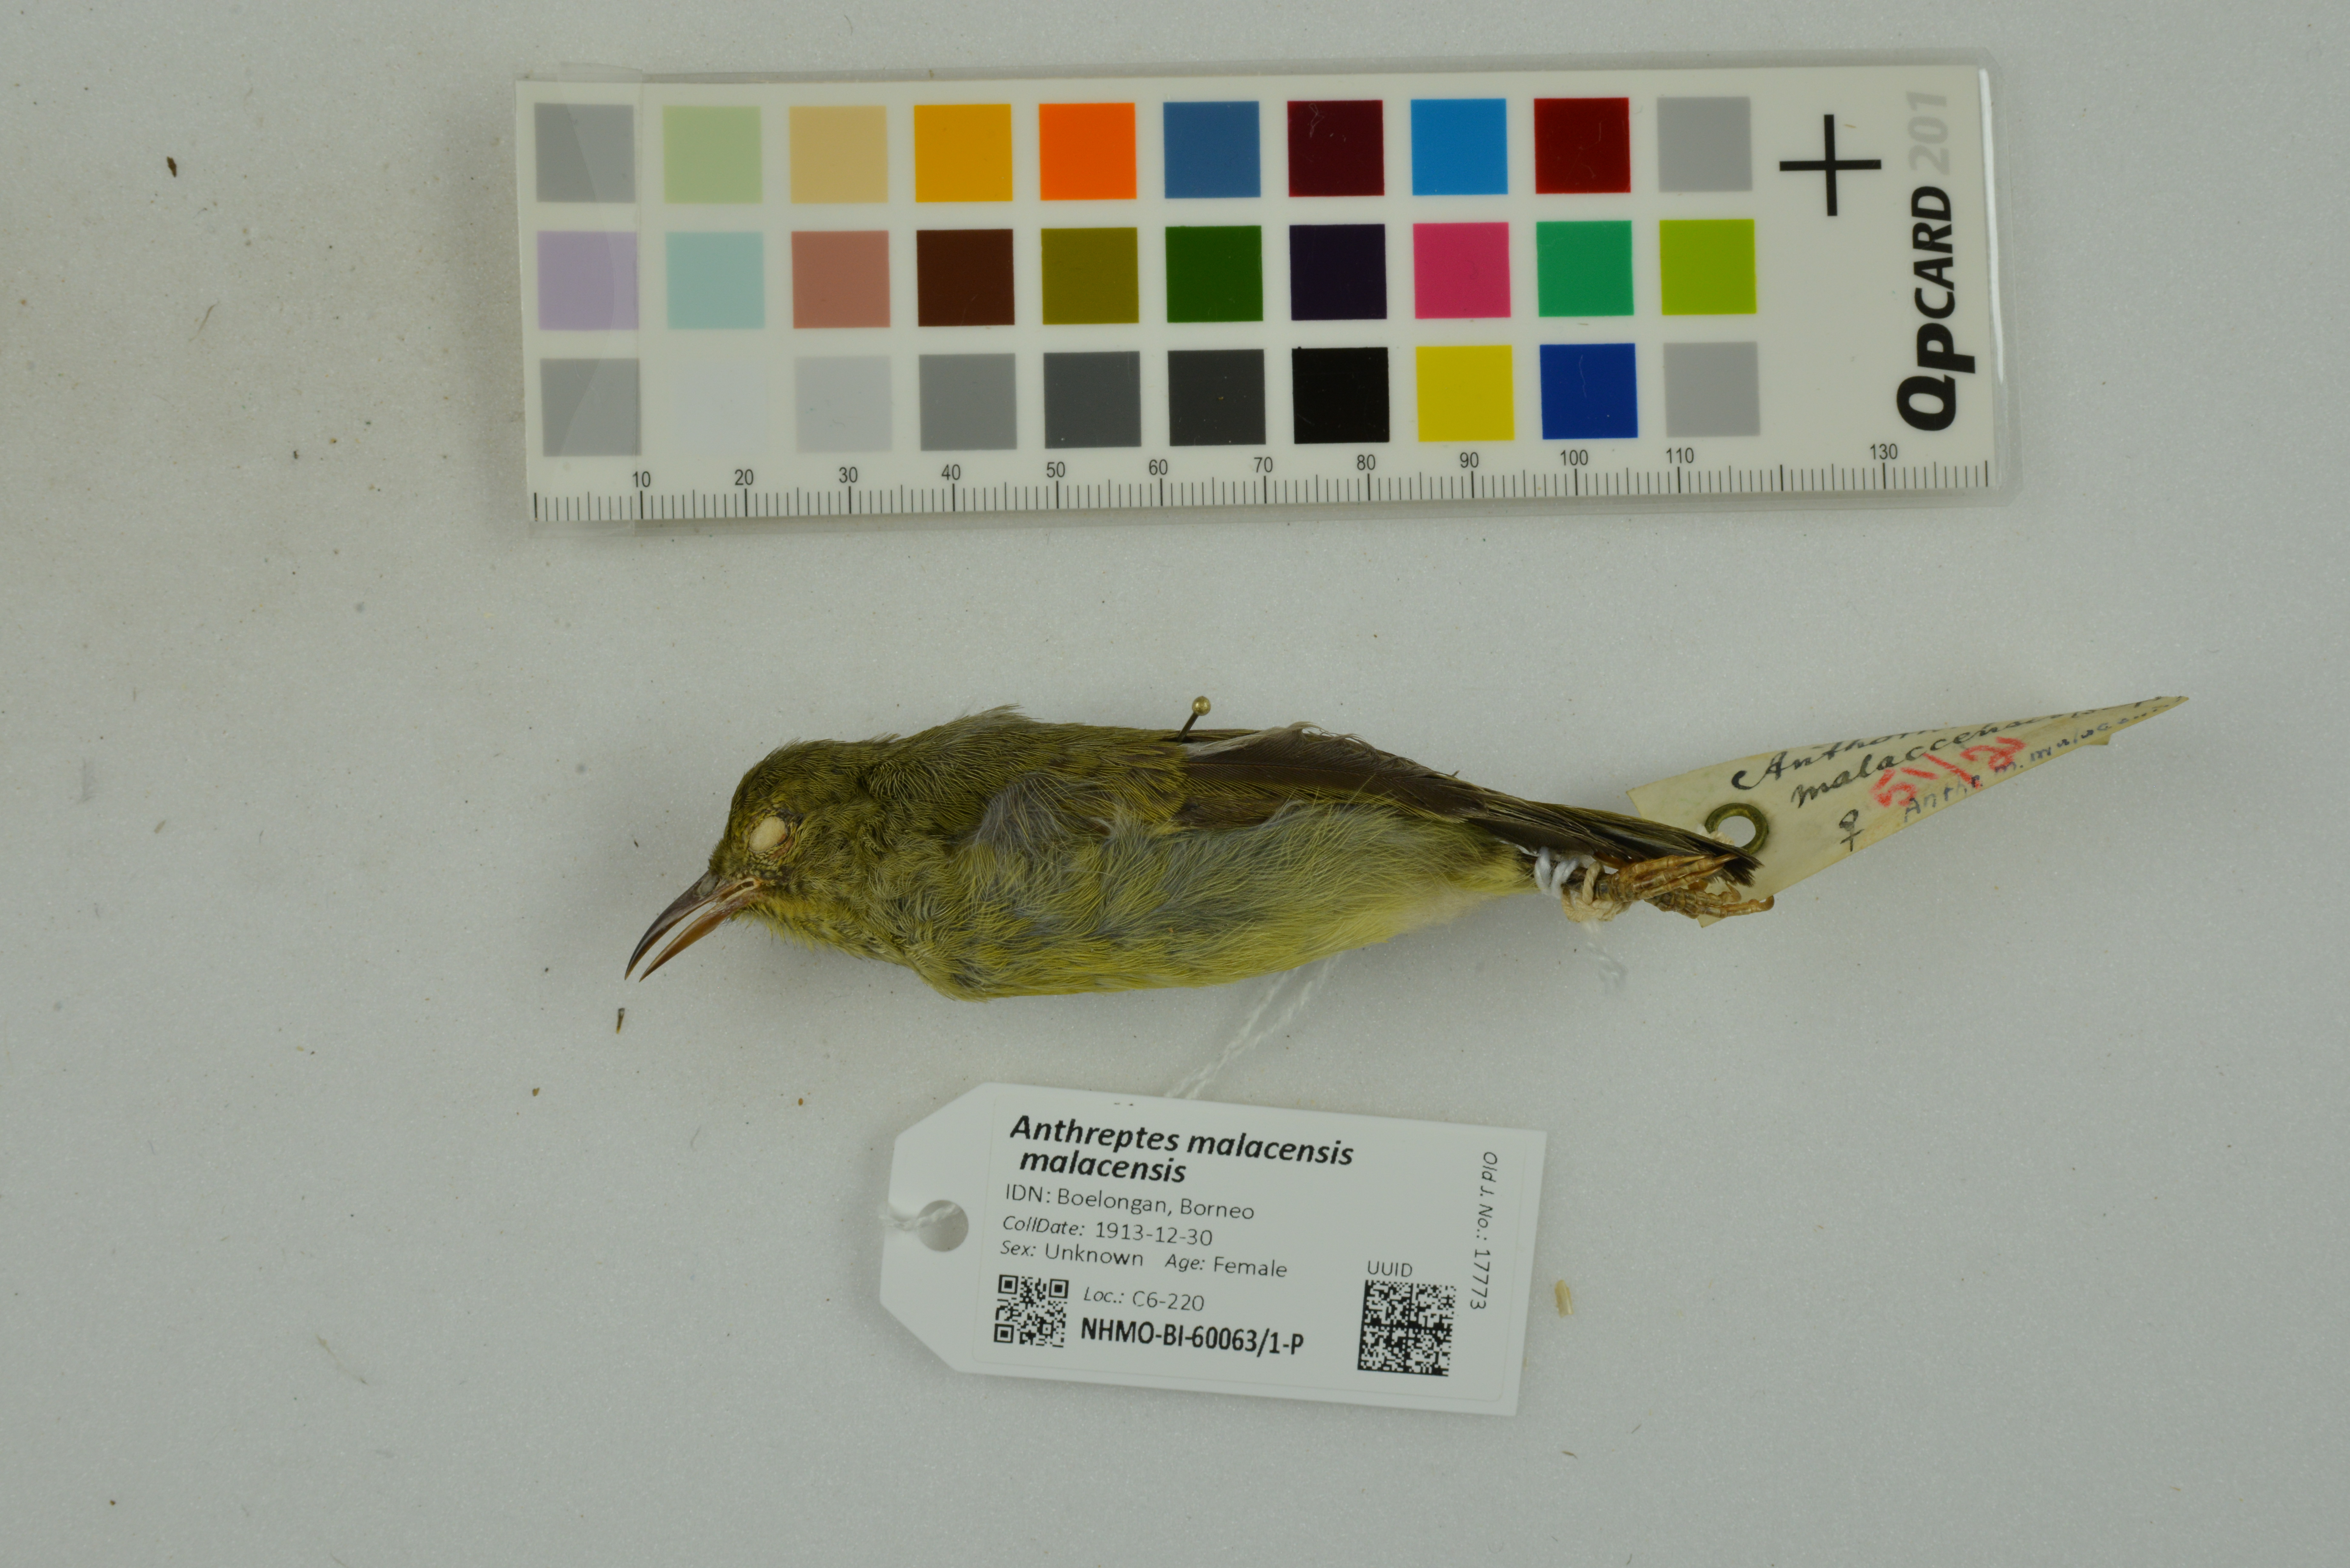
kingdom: Animalia
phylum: Chordata
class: Aves
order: Passeriformes
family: Nectariniidae
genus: Anthreptes
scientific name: Anthreptes malacensis
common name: Brown-throated sunbird
